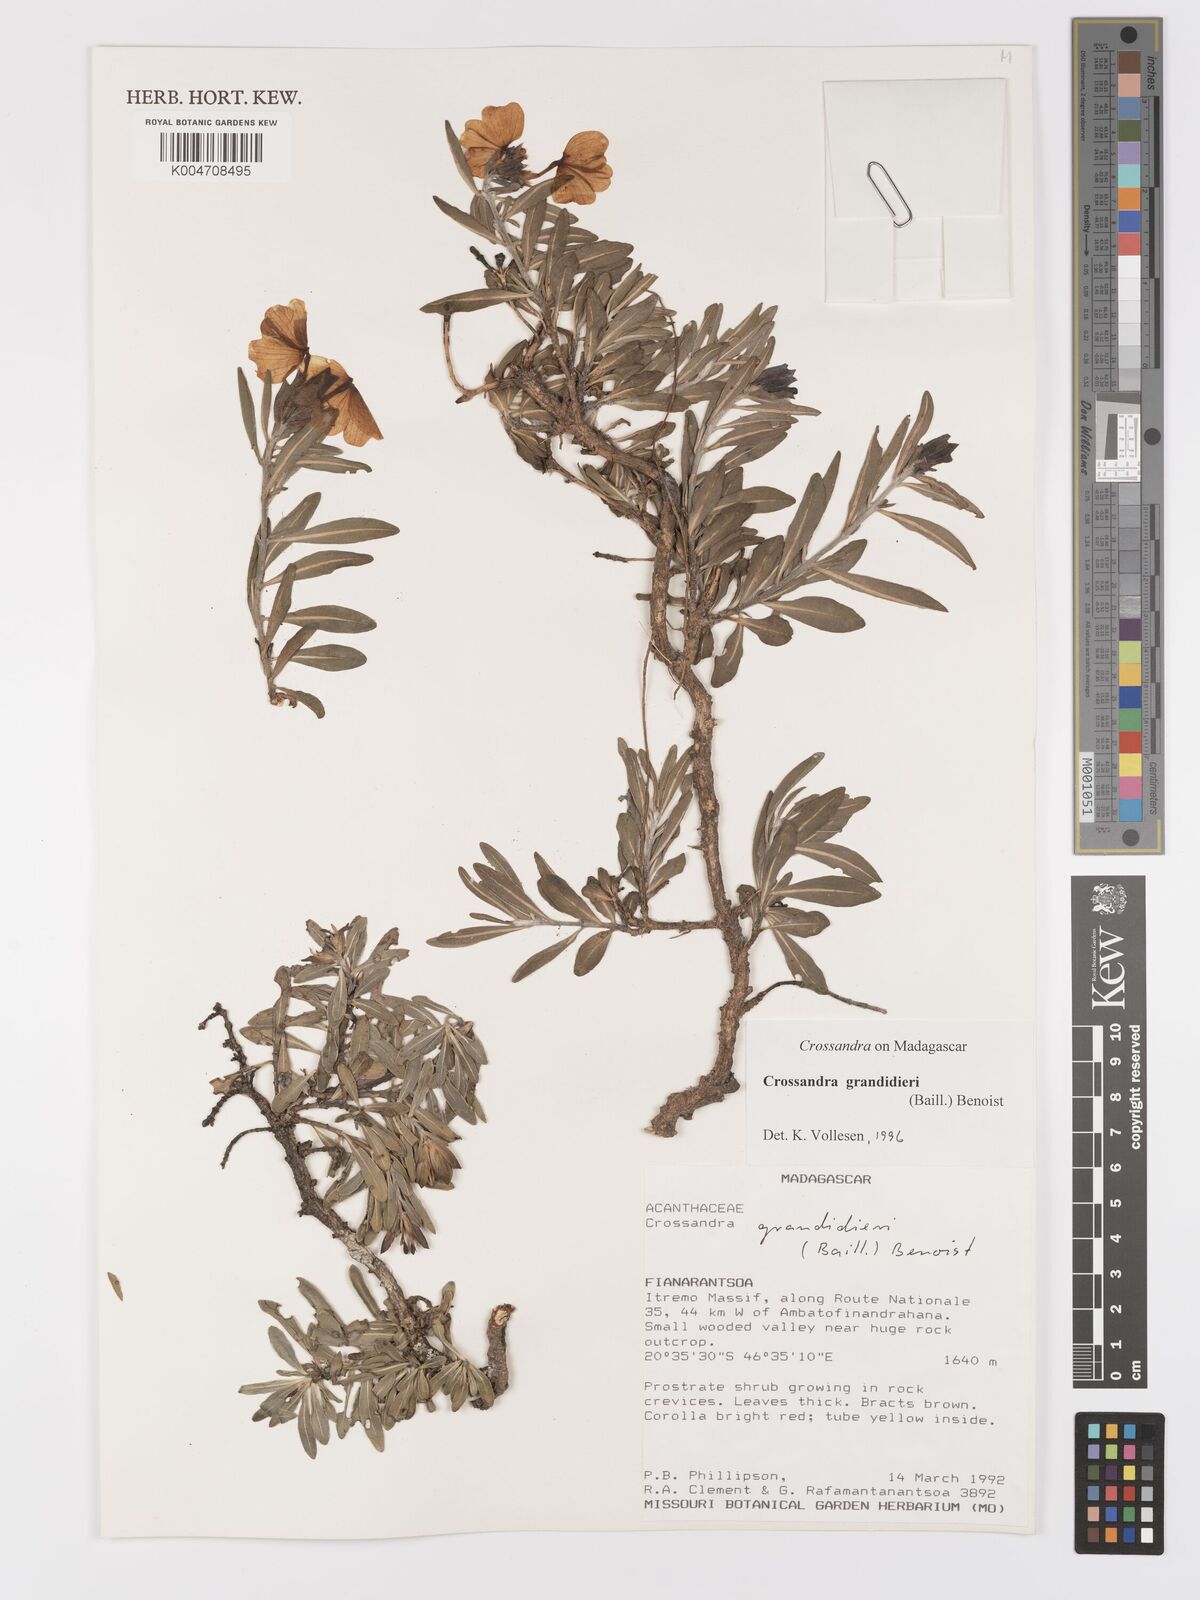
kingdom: Plantae
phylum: Tracheophyta
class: Magnoliopsida
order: Lamiales
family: Acanthaceae
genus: Crossandra
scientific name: Crossandra grandidieri
